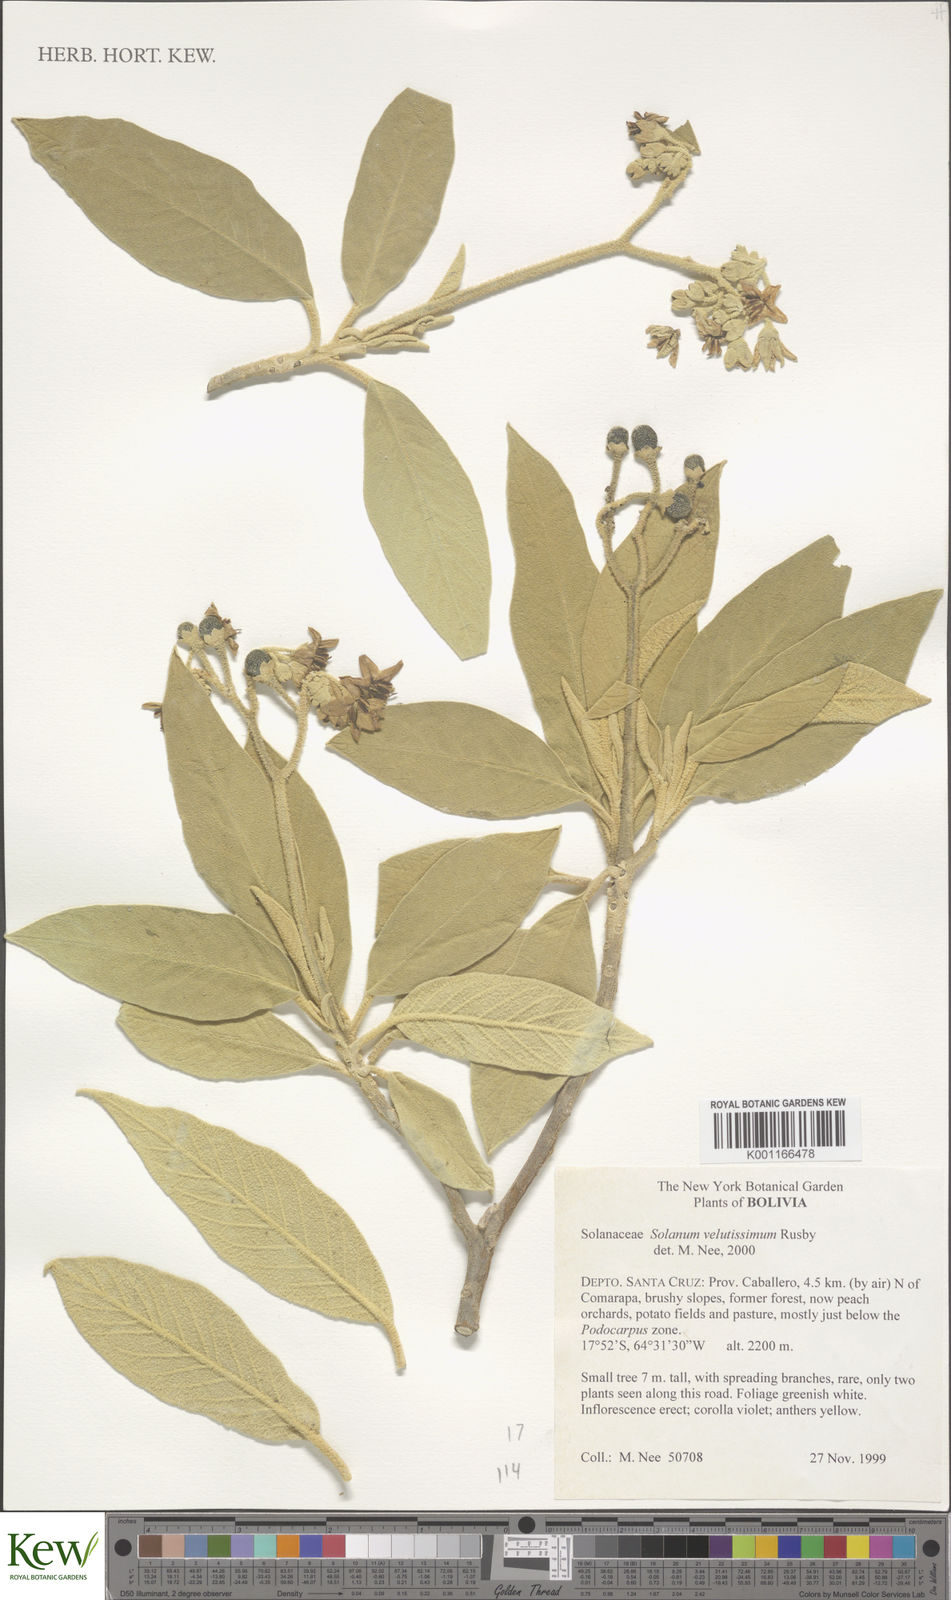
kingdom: Plantae
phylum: Tracheophyta
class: Magnoliopsida
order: Solanales
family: Solanaceae
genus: Solanum
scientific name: Solanum velutissimum
